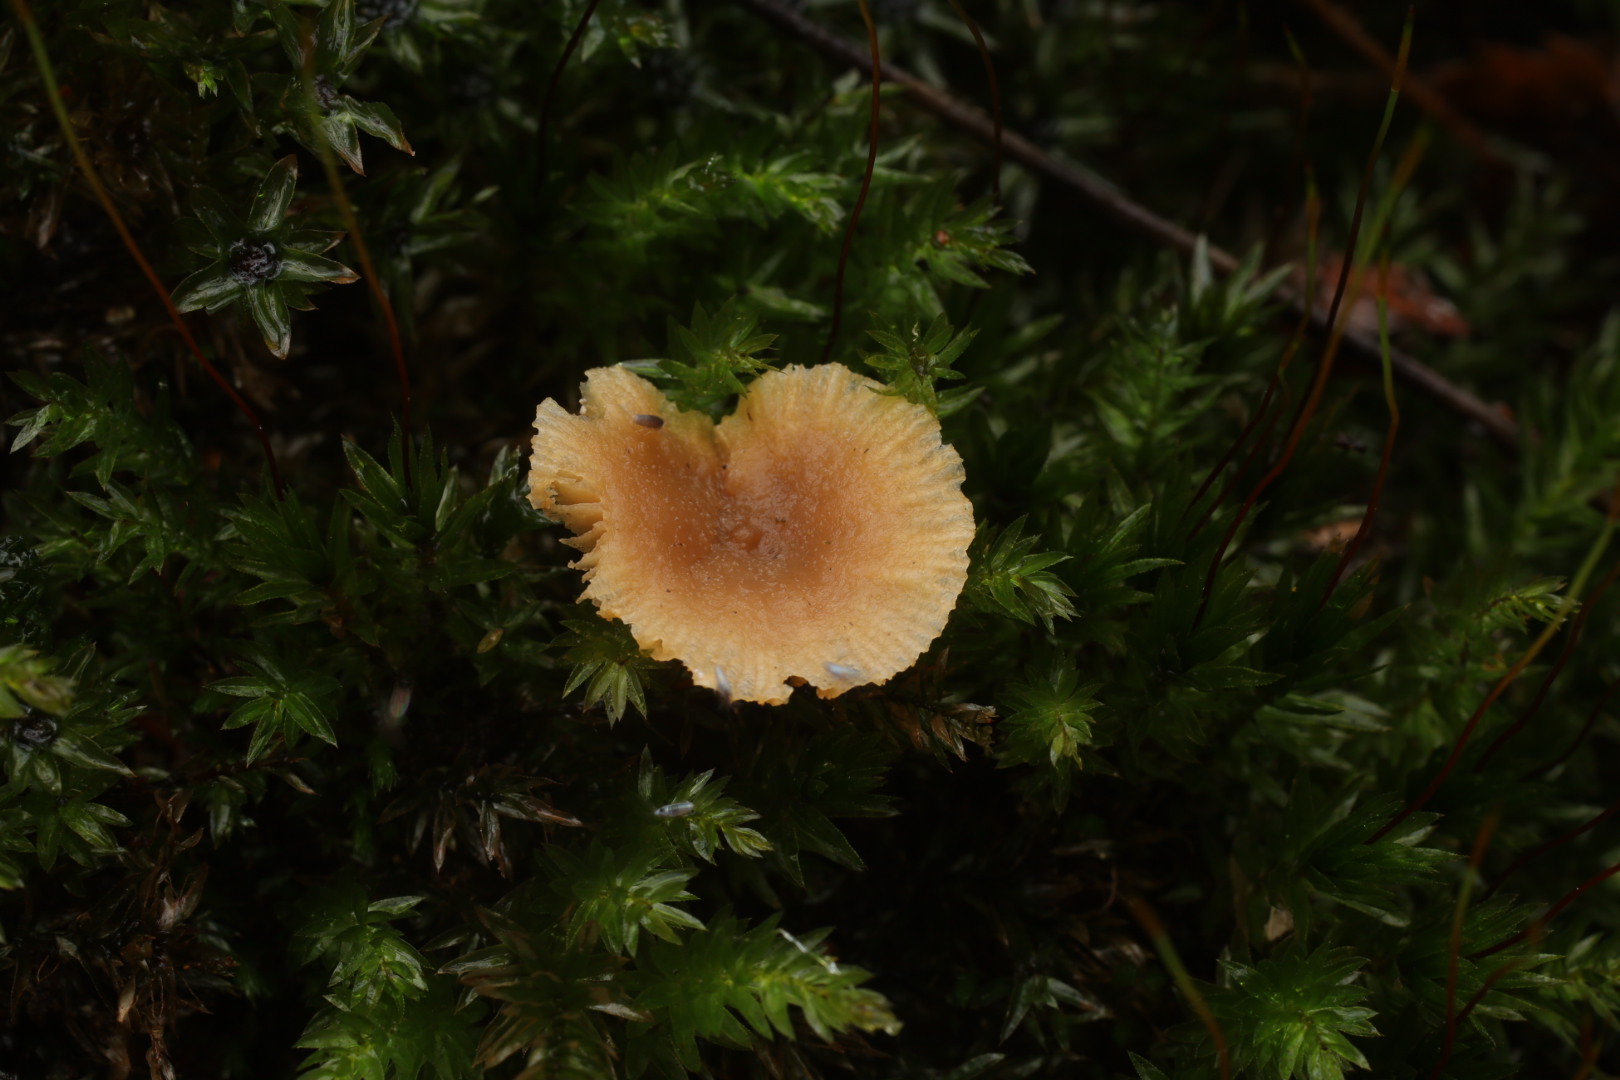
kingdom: Fungi
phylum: Basidiomycota
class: Agaricomycetes
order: Russulales
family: Russulaceae
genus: Lactarius
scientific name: Lactarius
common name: mælkehat
